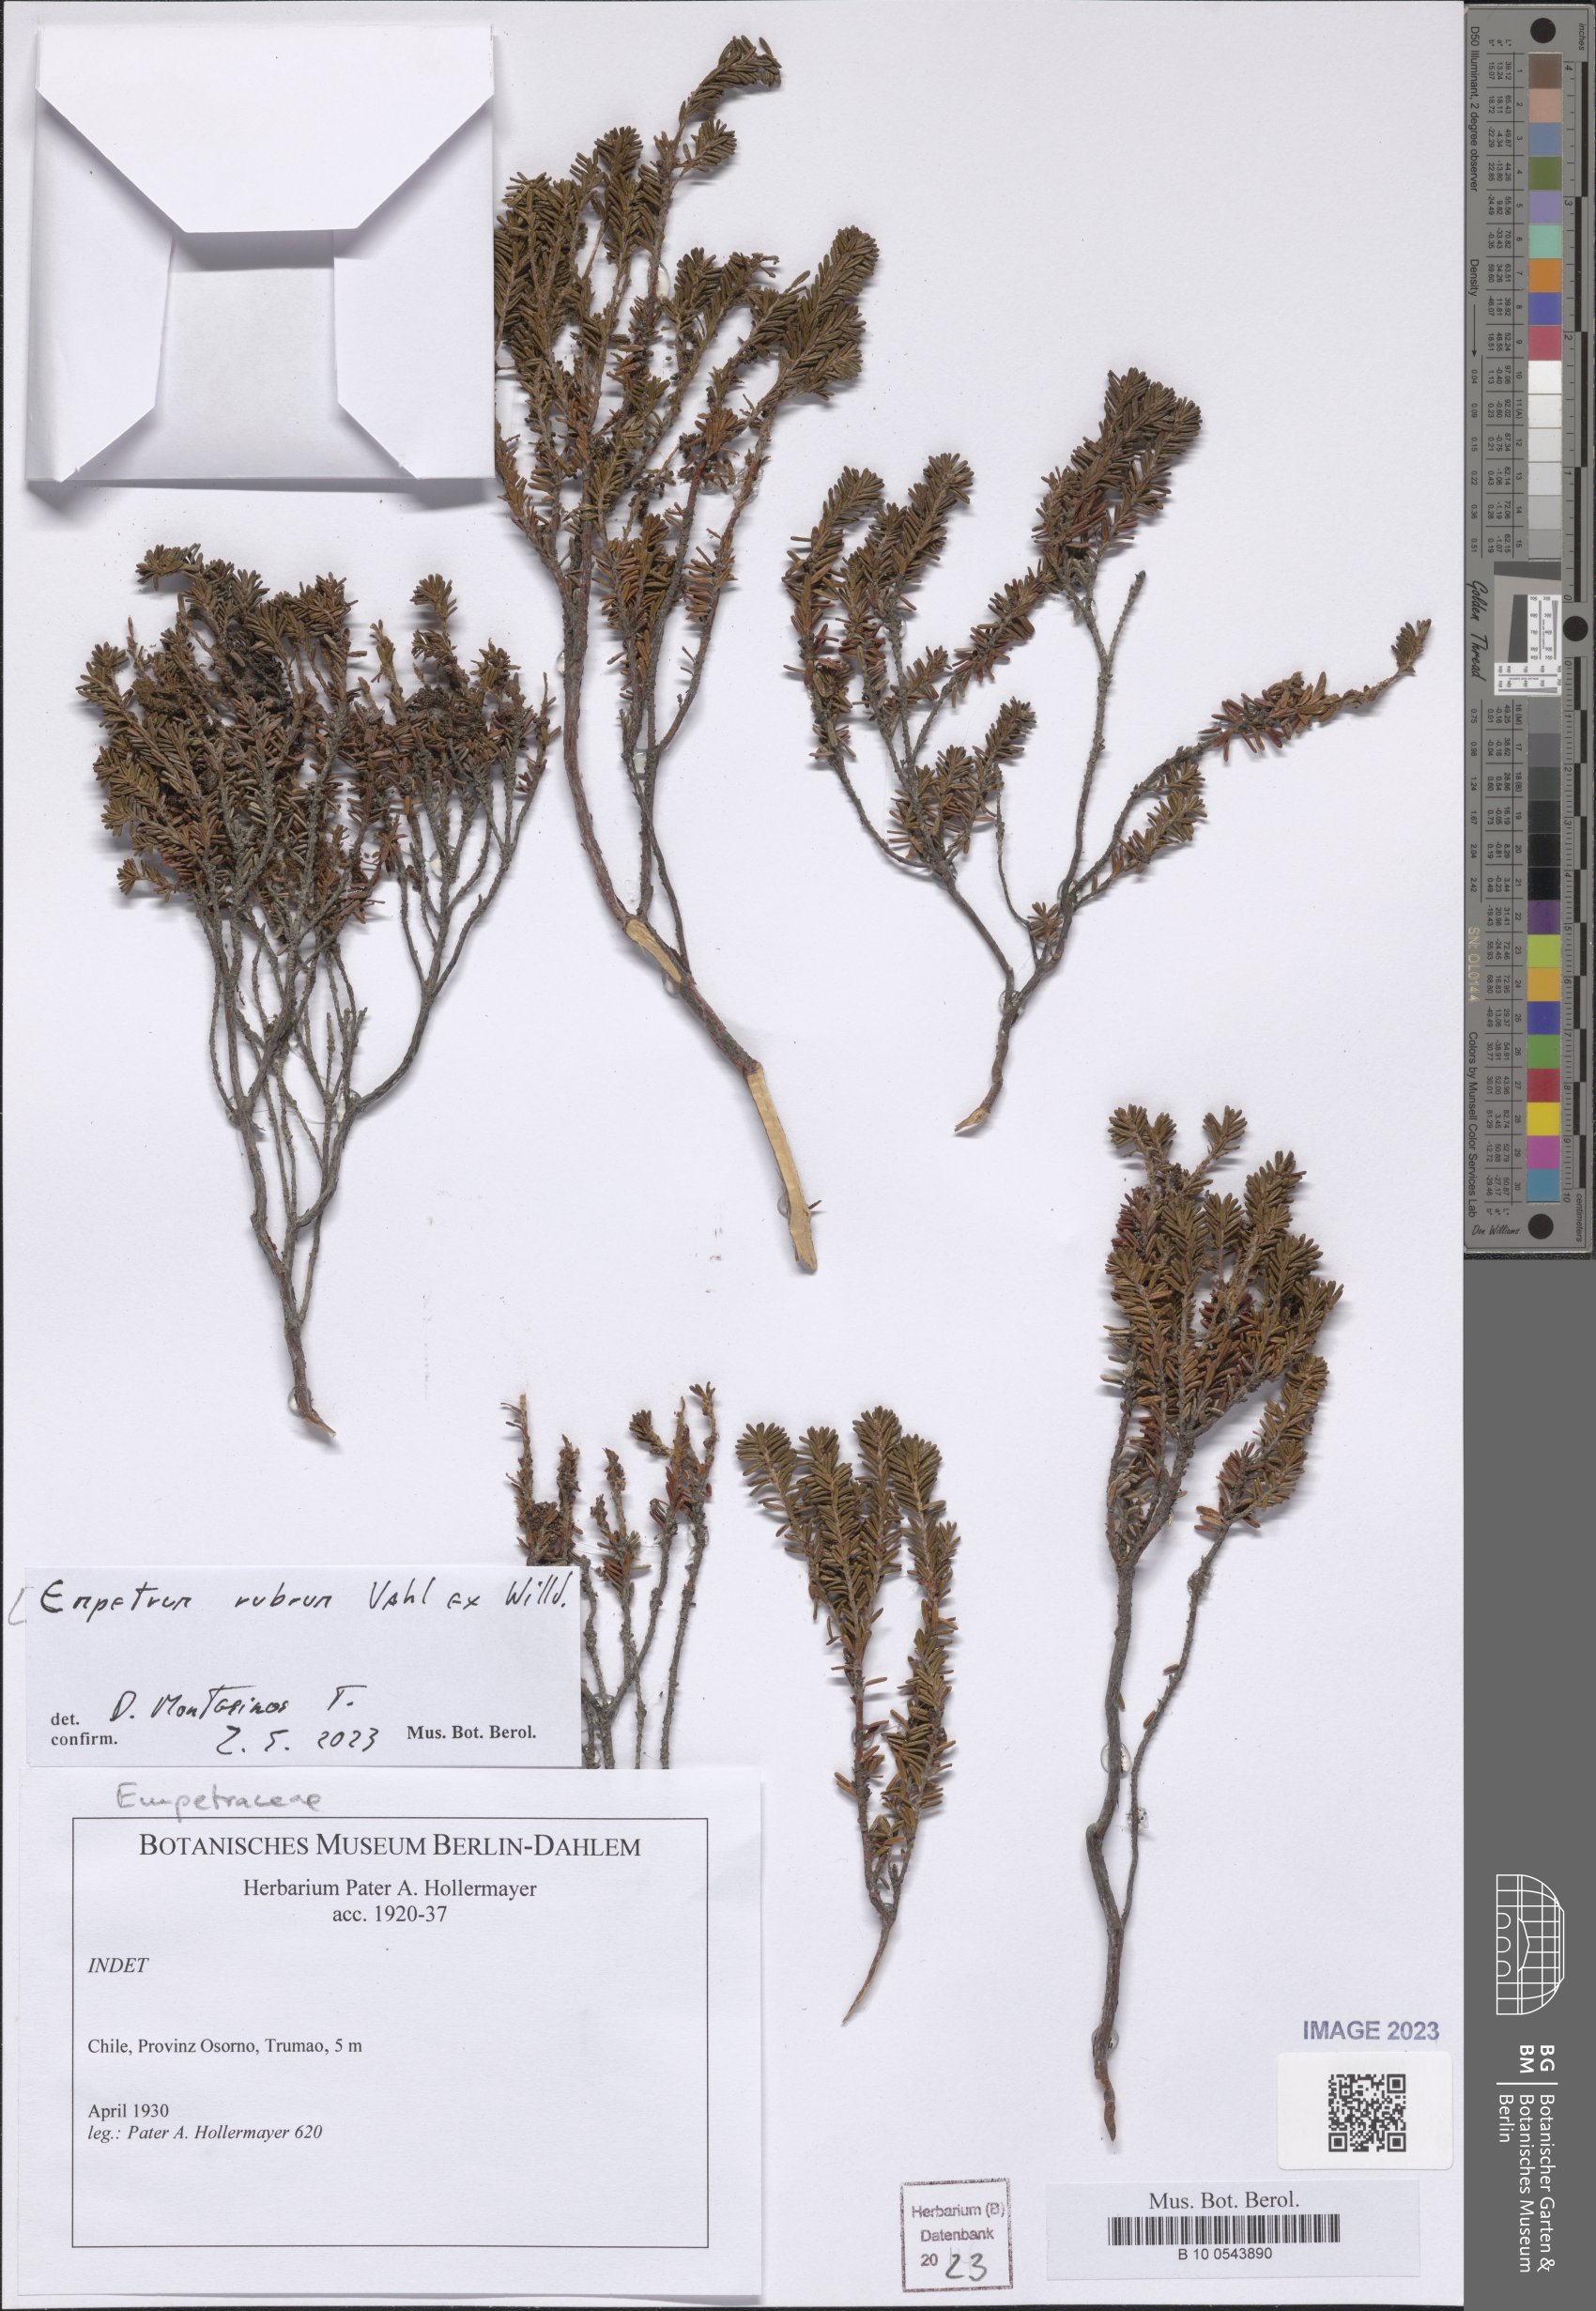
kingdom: Plantae
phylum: Tracheophyta
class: Magnoliopsida
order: Ericales
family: Ericaceae
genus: Empetrum
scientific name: Empetrum rubrum
